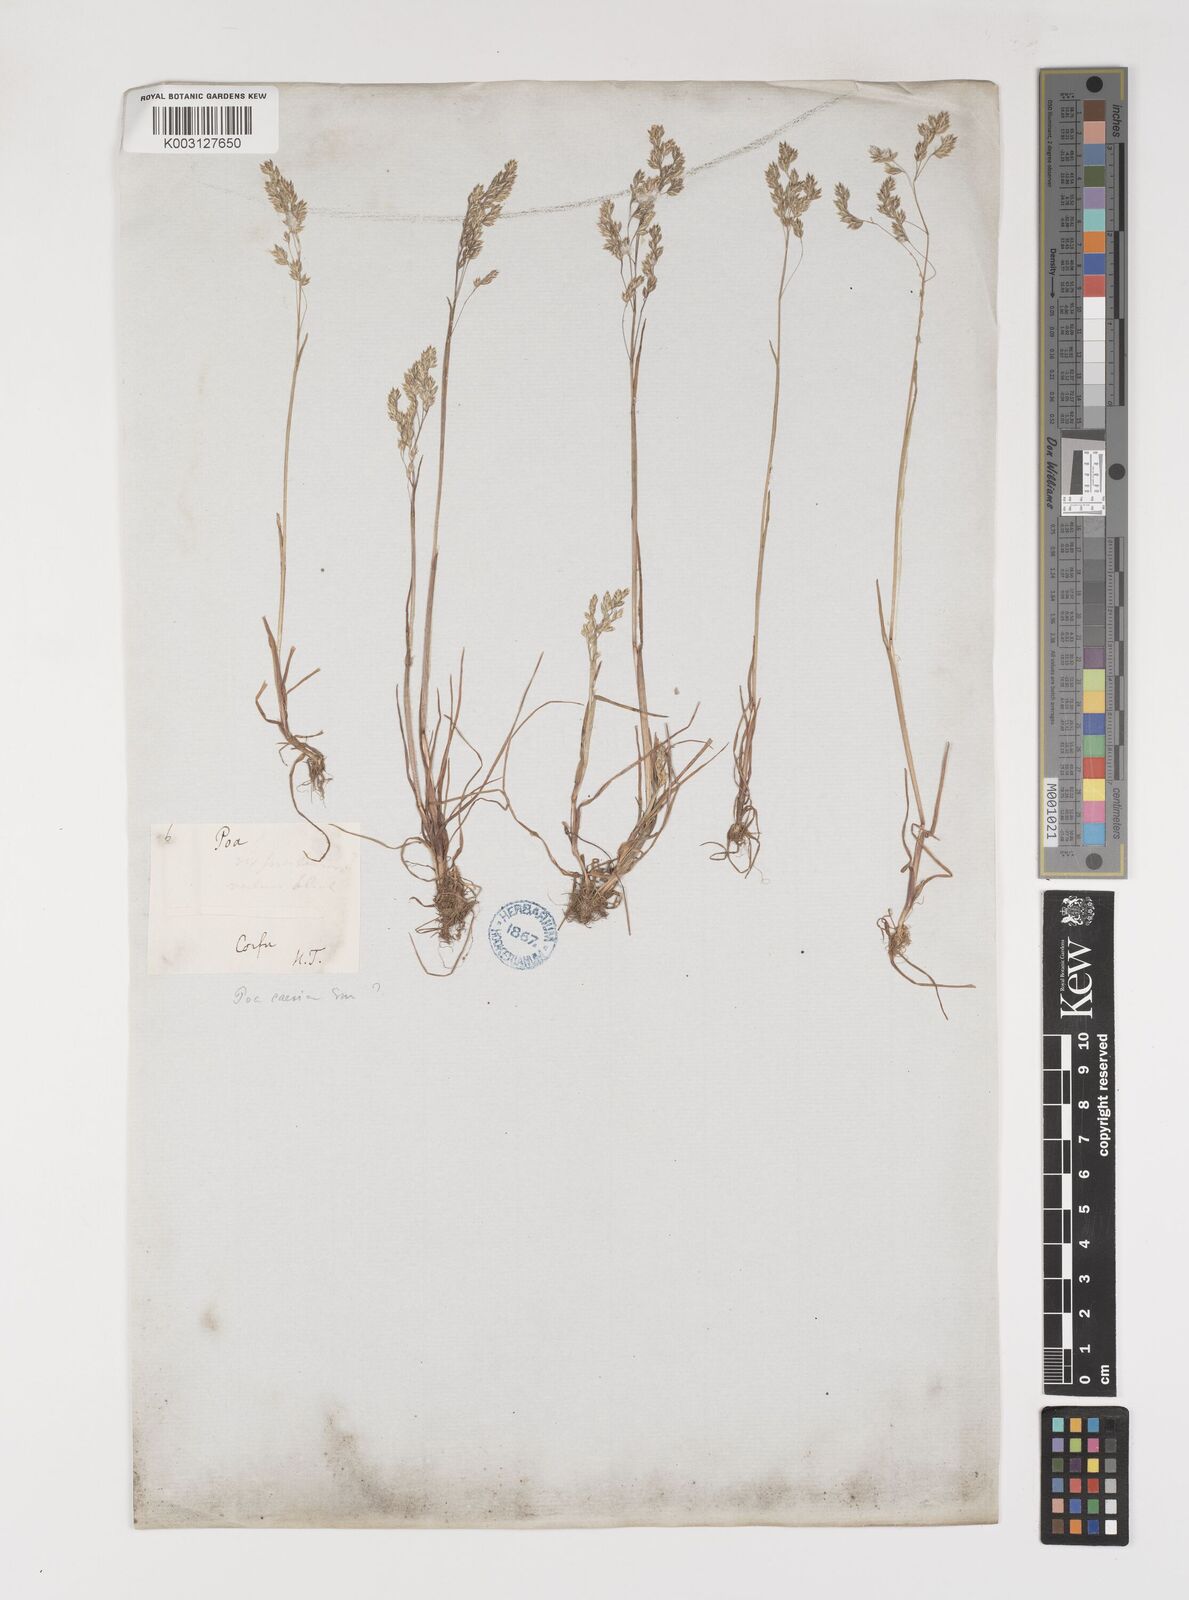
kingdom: Plantae
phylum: Tracheophyta
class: Liliopsida
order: Poales
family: Poaceae
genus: Poa
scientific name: Poa
